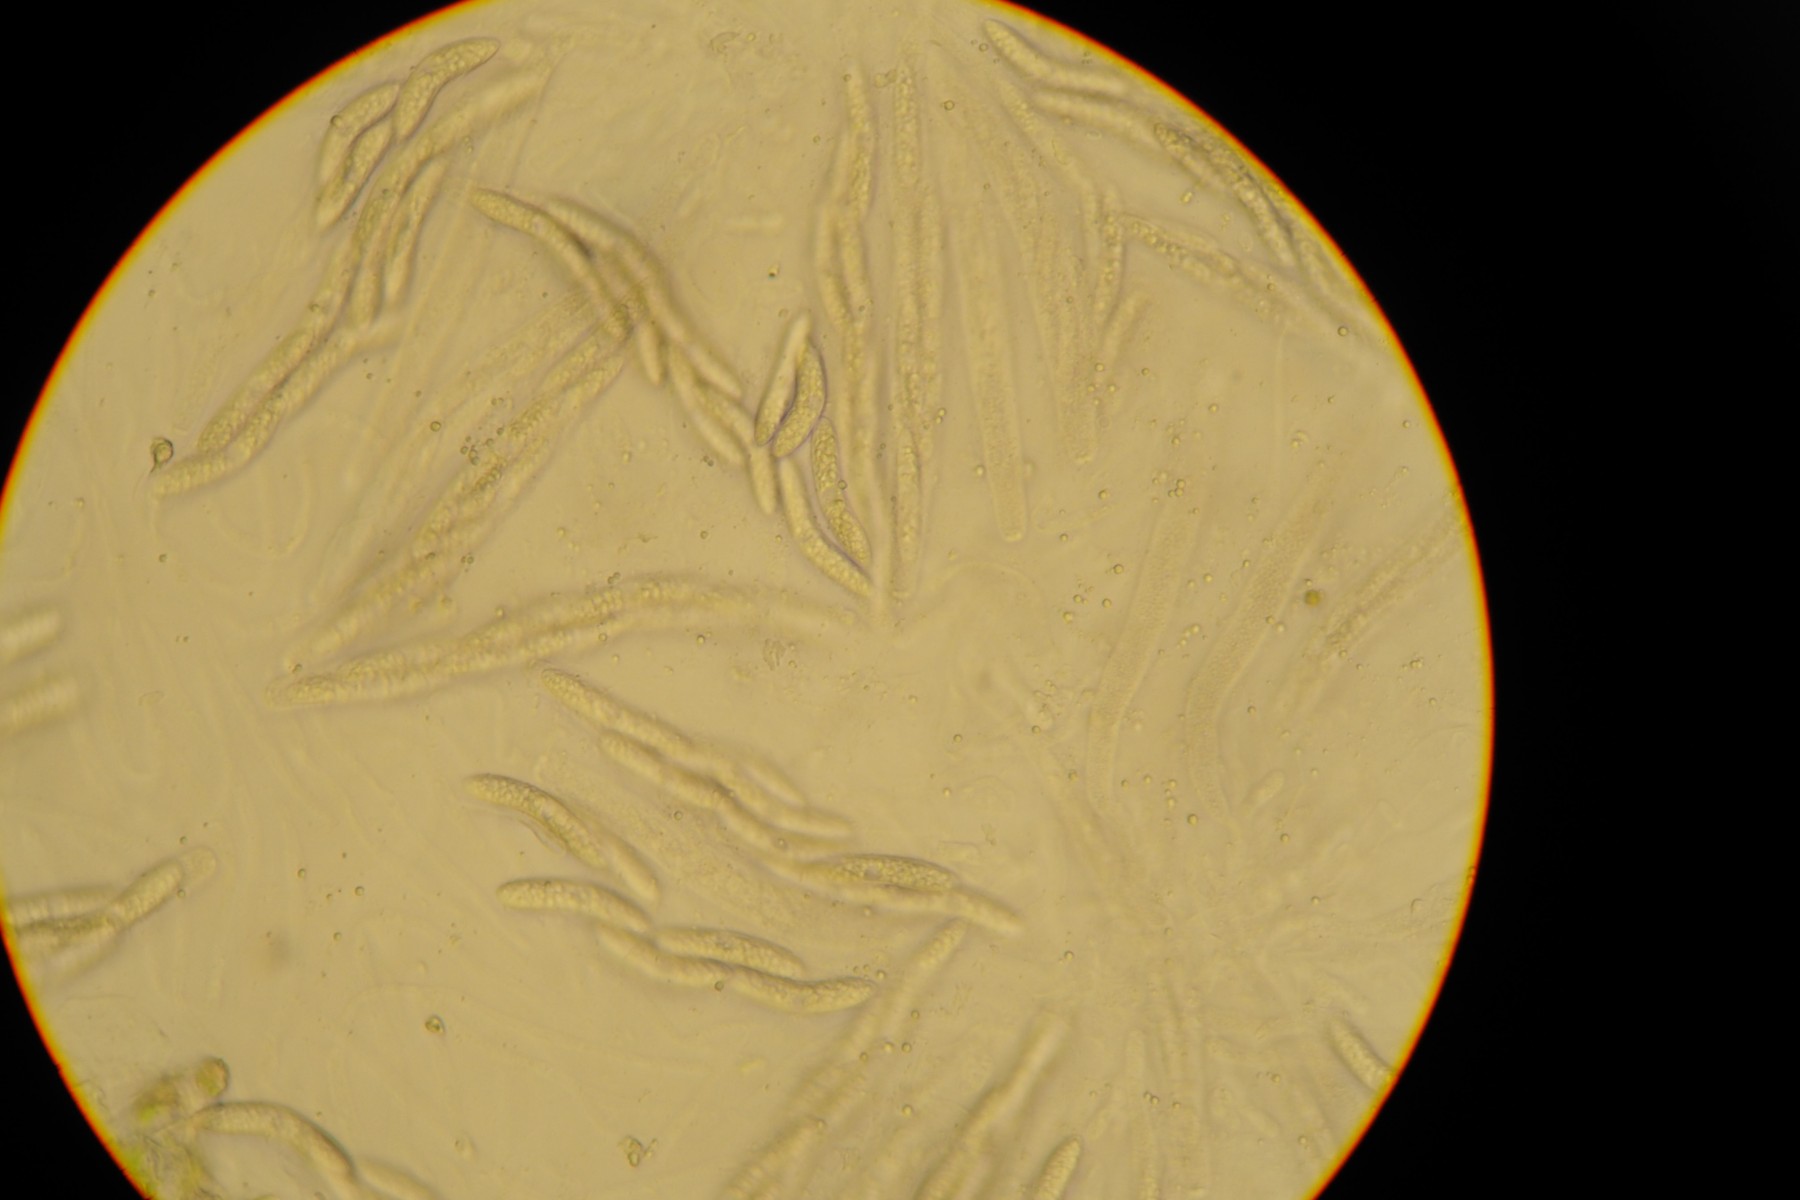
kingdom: Fungi
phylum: Ascomycota
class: Sordariomycetes
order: Sordariales
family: Helminthosphaeriaceae
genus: Echinosphaeria
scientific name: Echinosphaeria strigosa
